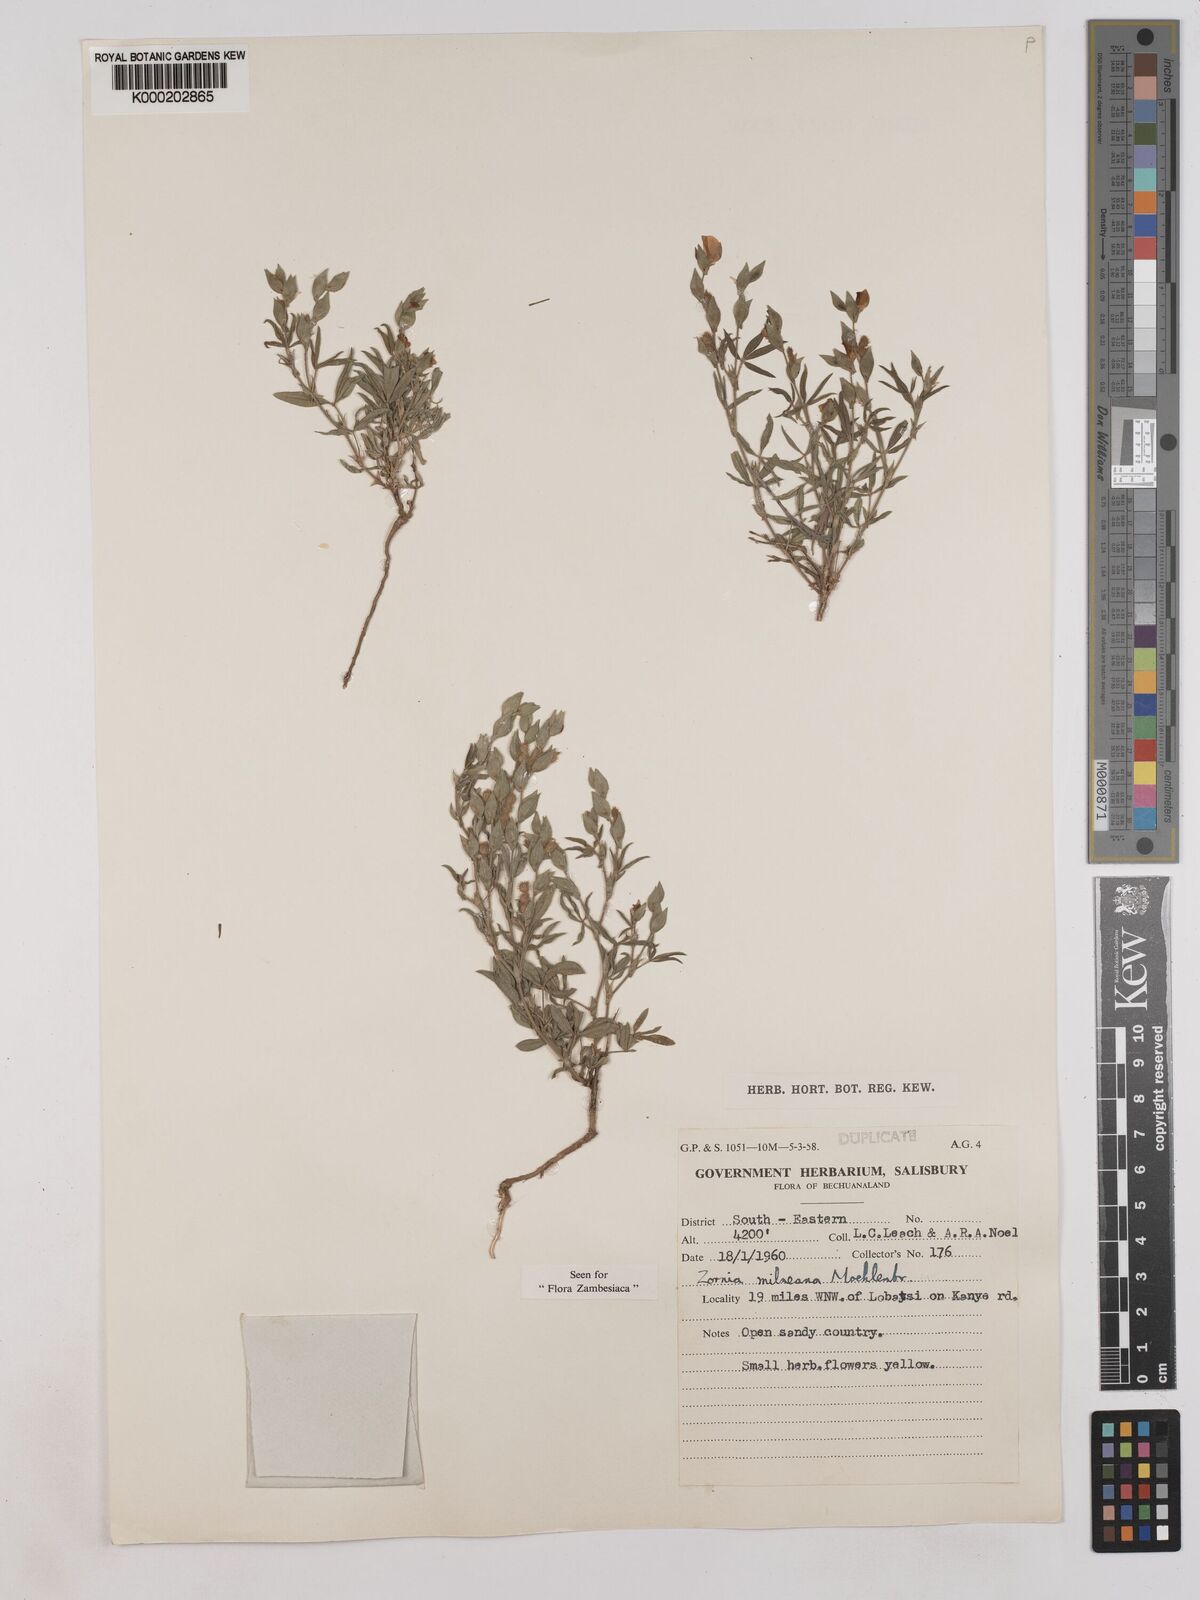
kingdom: Plantae
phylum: Tracheophyta
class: Magnoliopsida
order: Fabales
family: Fabaceae
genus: Zornia
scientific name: Zornia milneana
